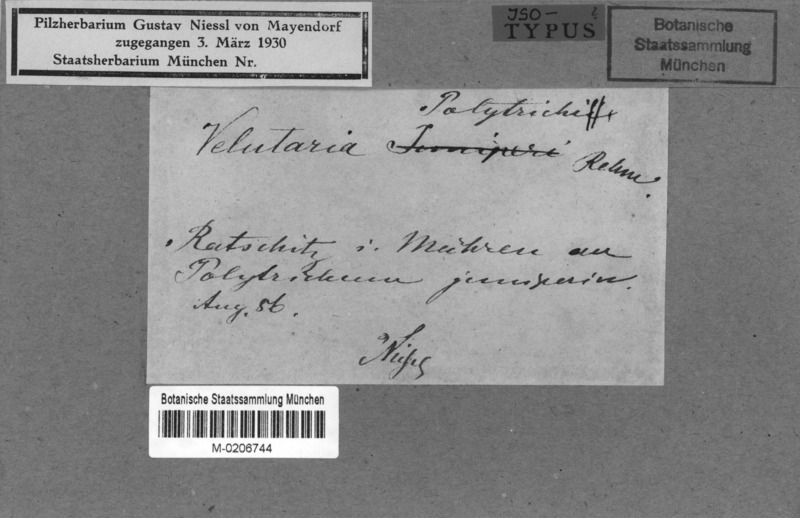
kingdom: Fungi
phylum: Ascomycota
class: Leotiomycetes
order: Helotiales
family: Pezizellaceae
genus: Velutaria
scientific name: Velutaria polytrichi
